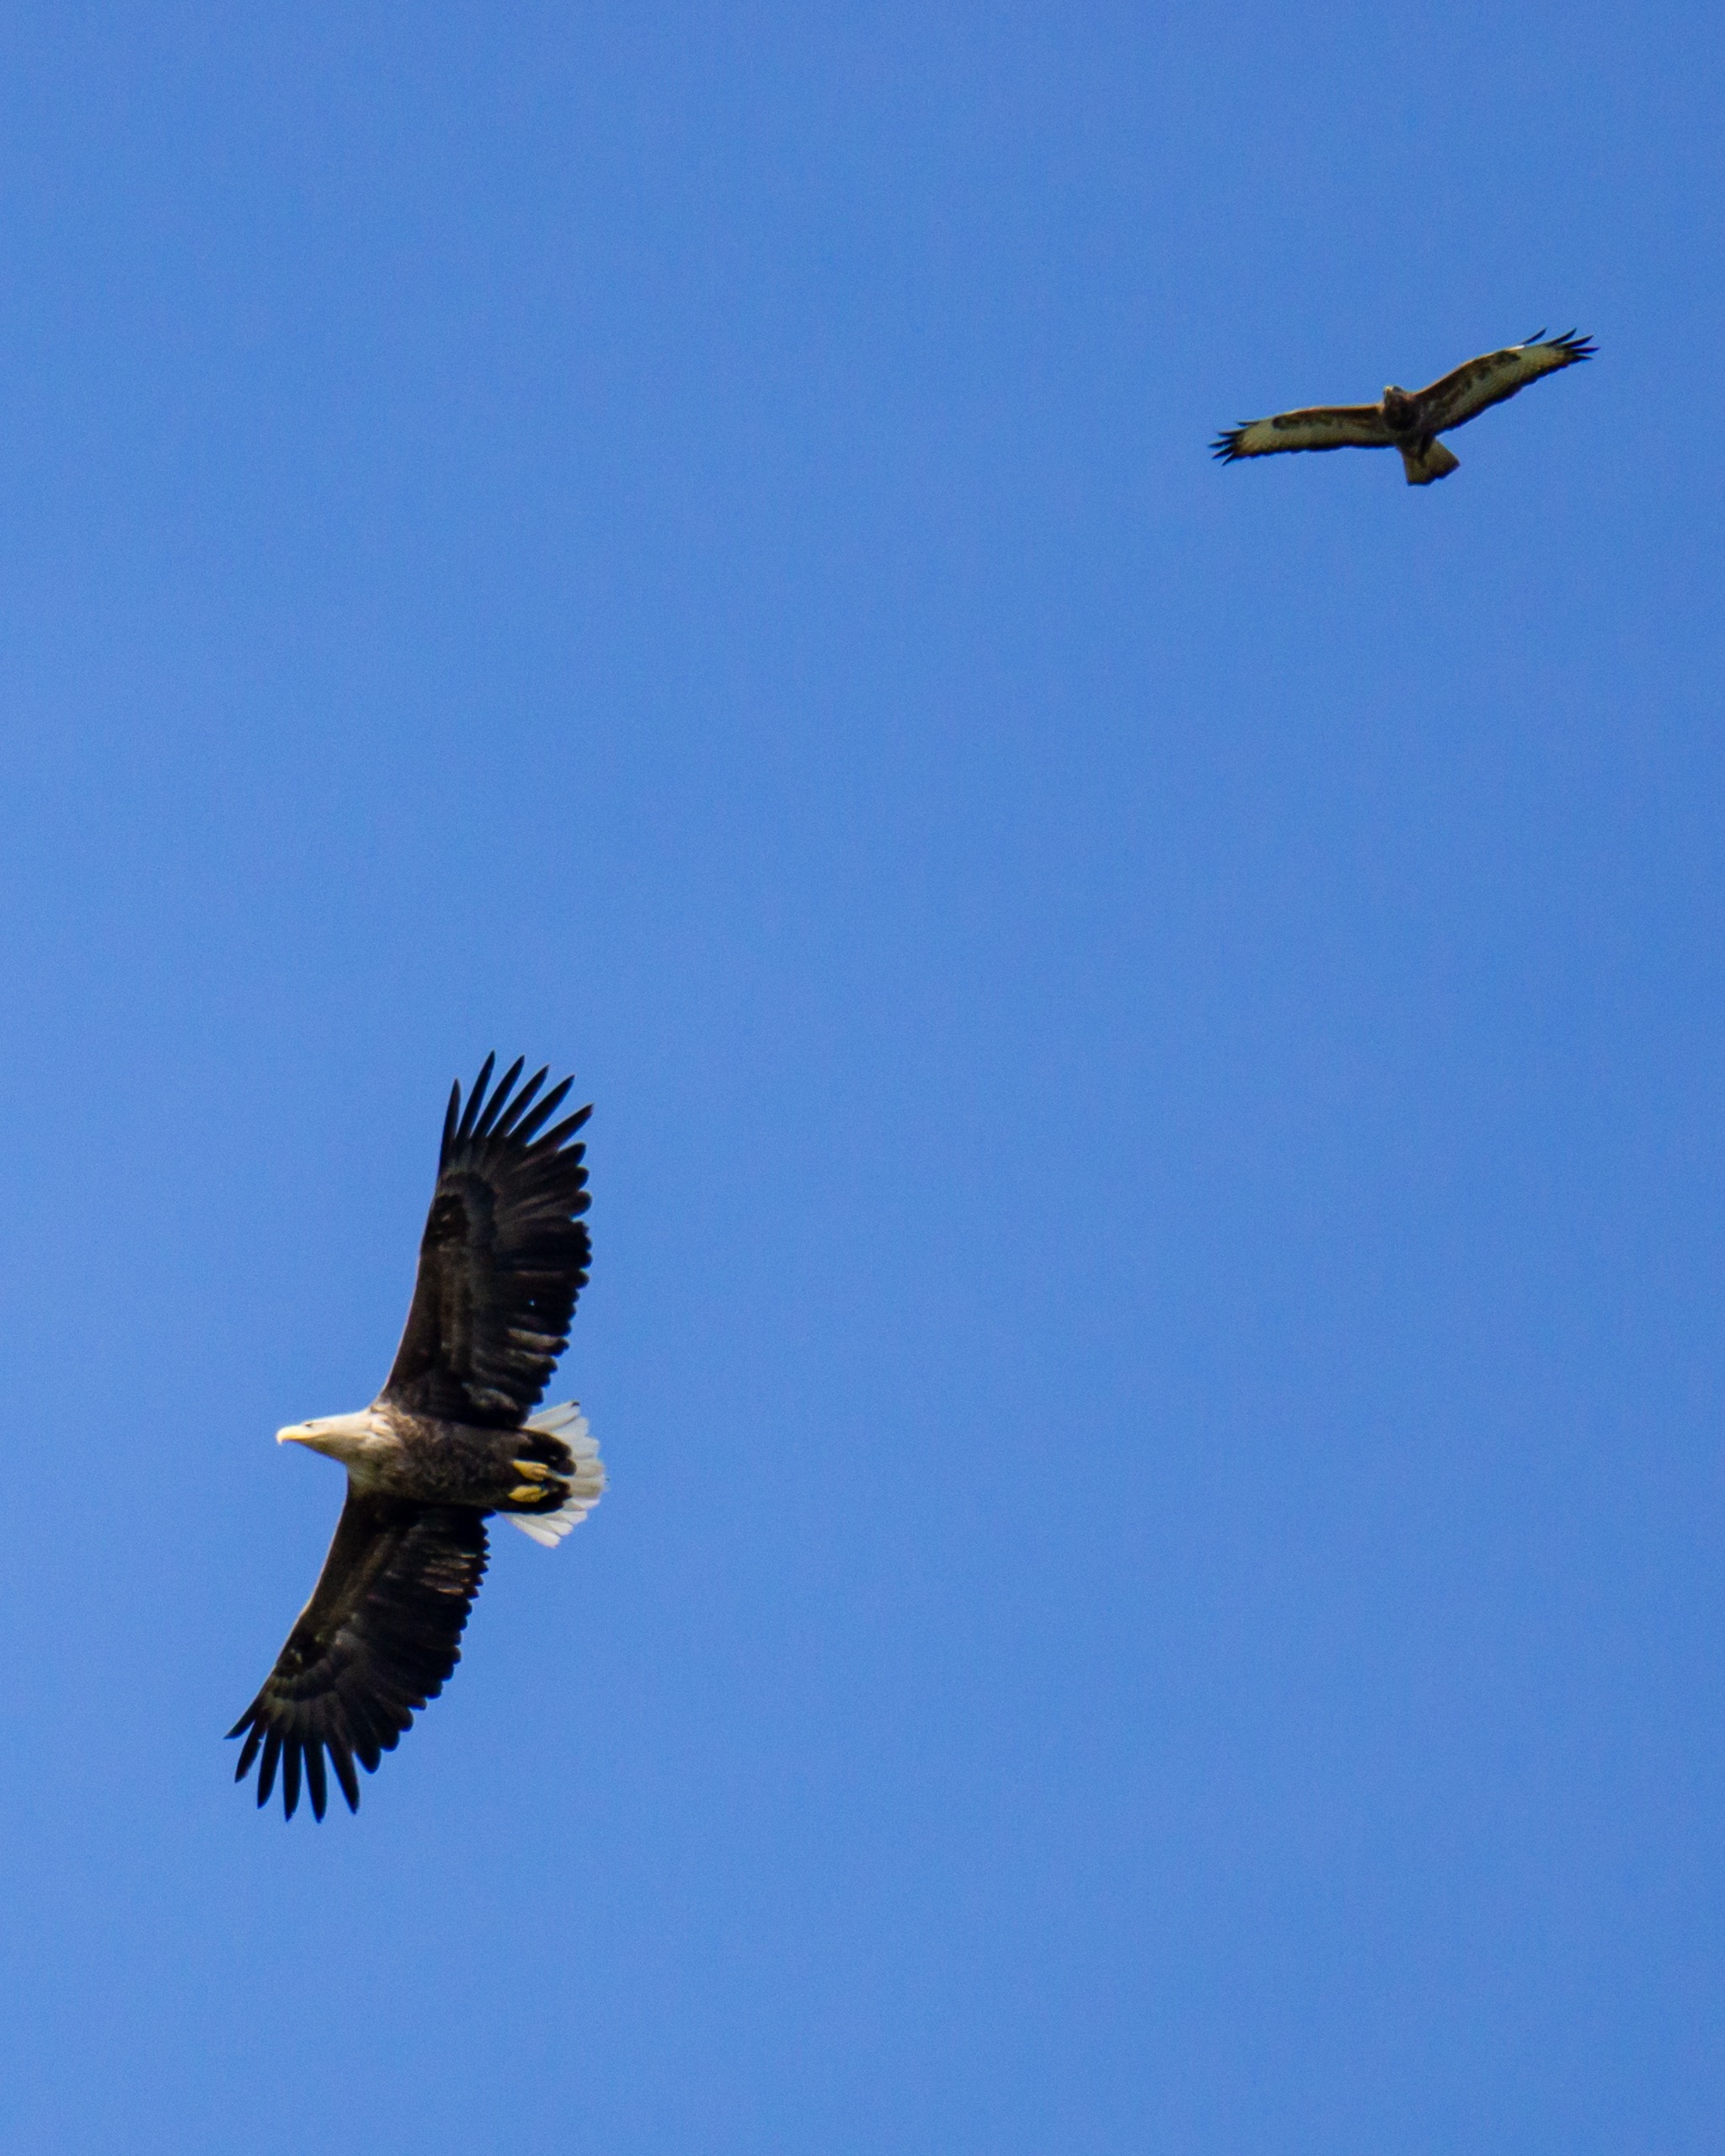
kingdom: Animalia
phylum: Chordata
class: Aves
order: Accipitriformes
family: Accipitridae
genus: Haliaeetus
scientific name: Haliaeetus albicilla
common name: Havørn
